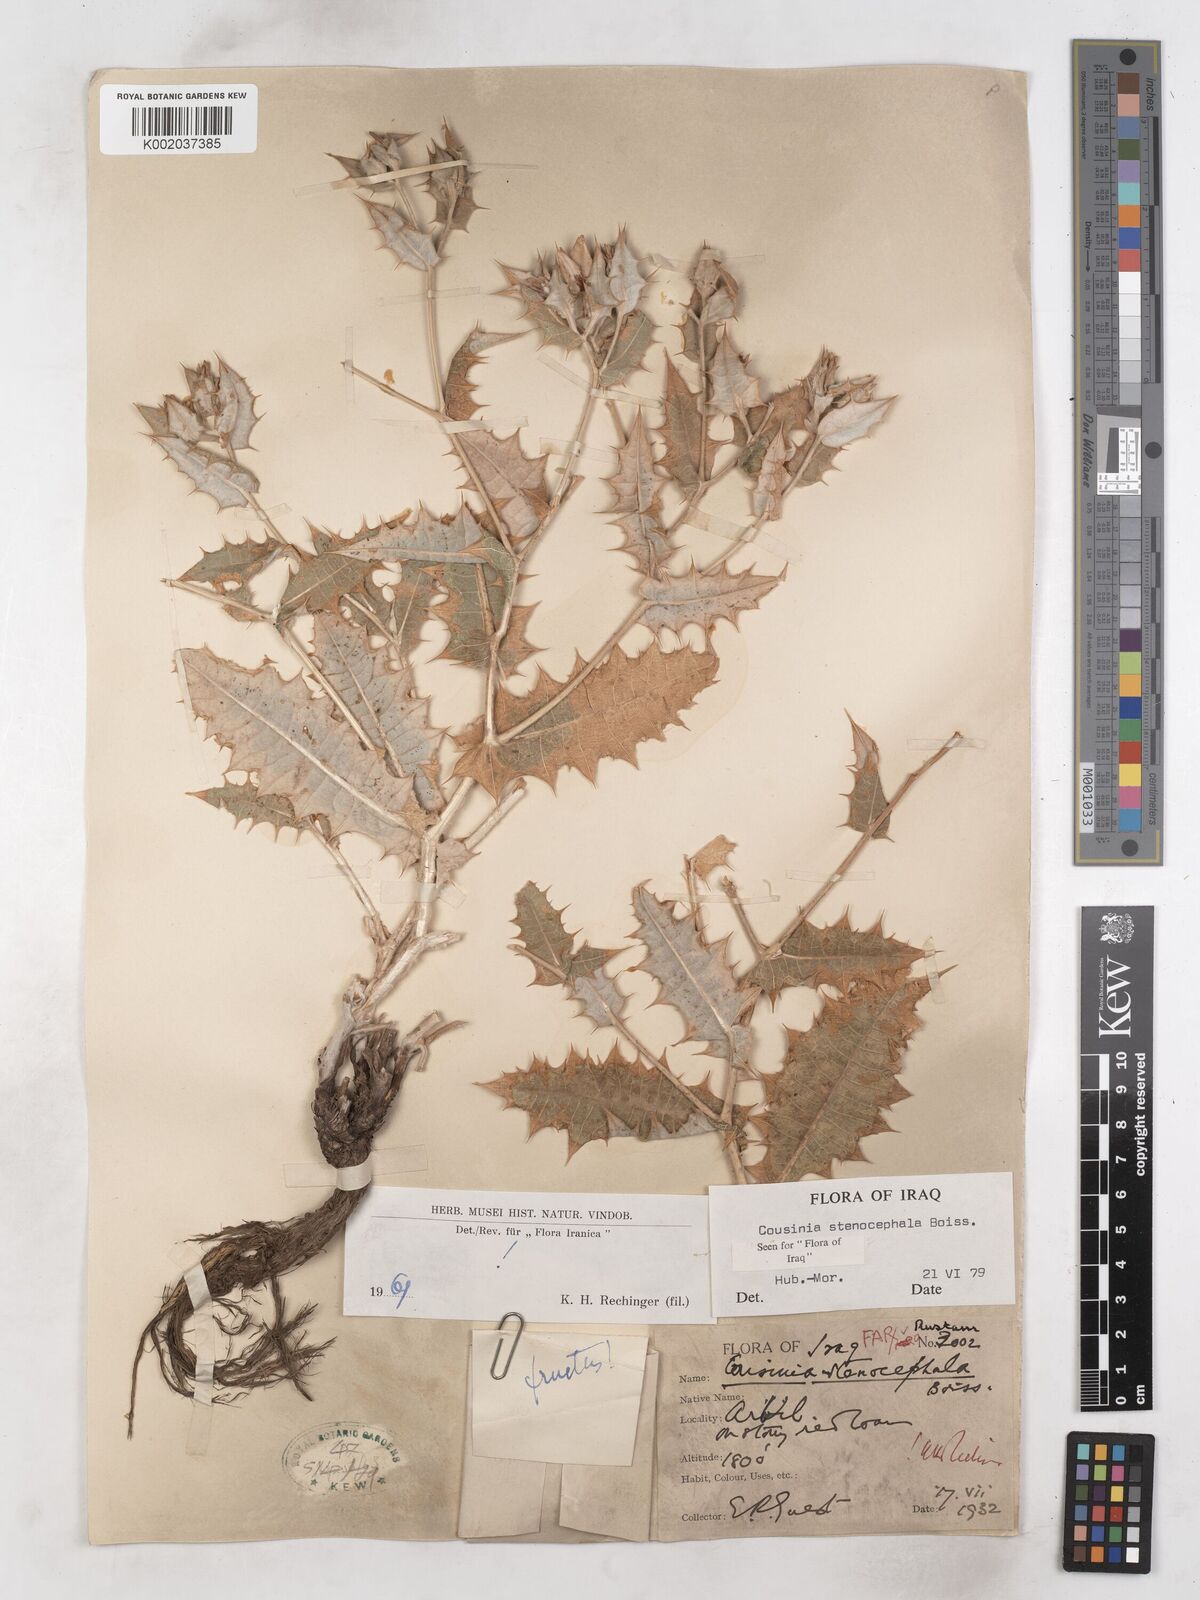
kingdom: Plantae
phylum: Tracheophyta
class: Magnoliopsida
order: Asterales
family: Asteraceae
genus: Cousinia
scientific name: Cousinia stenocephala
